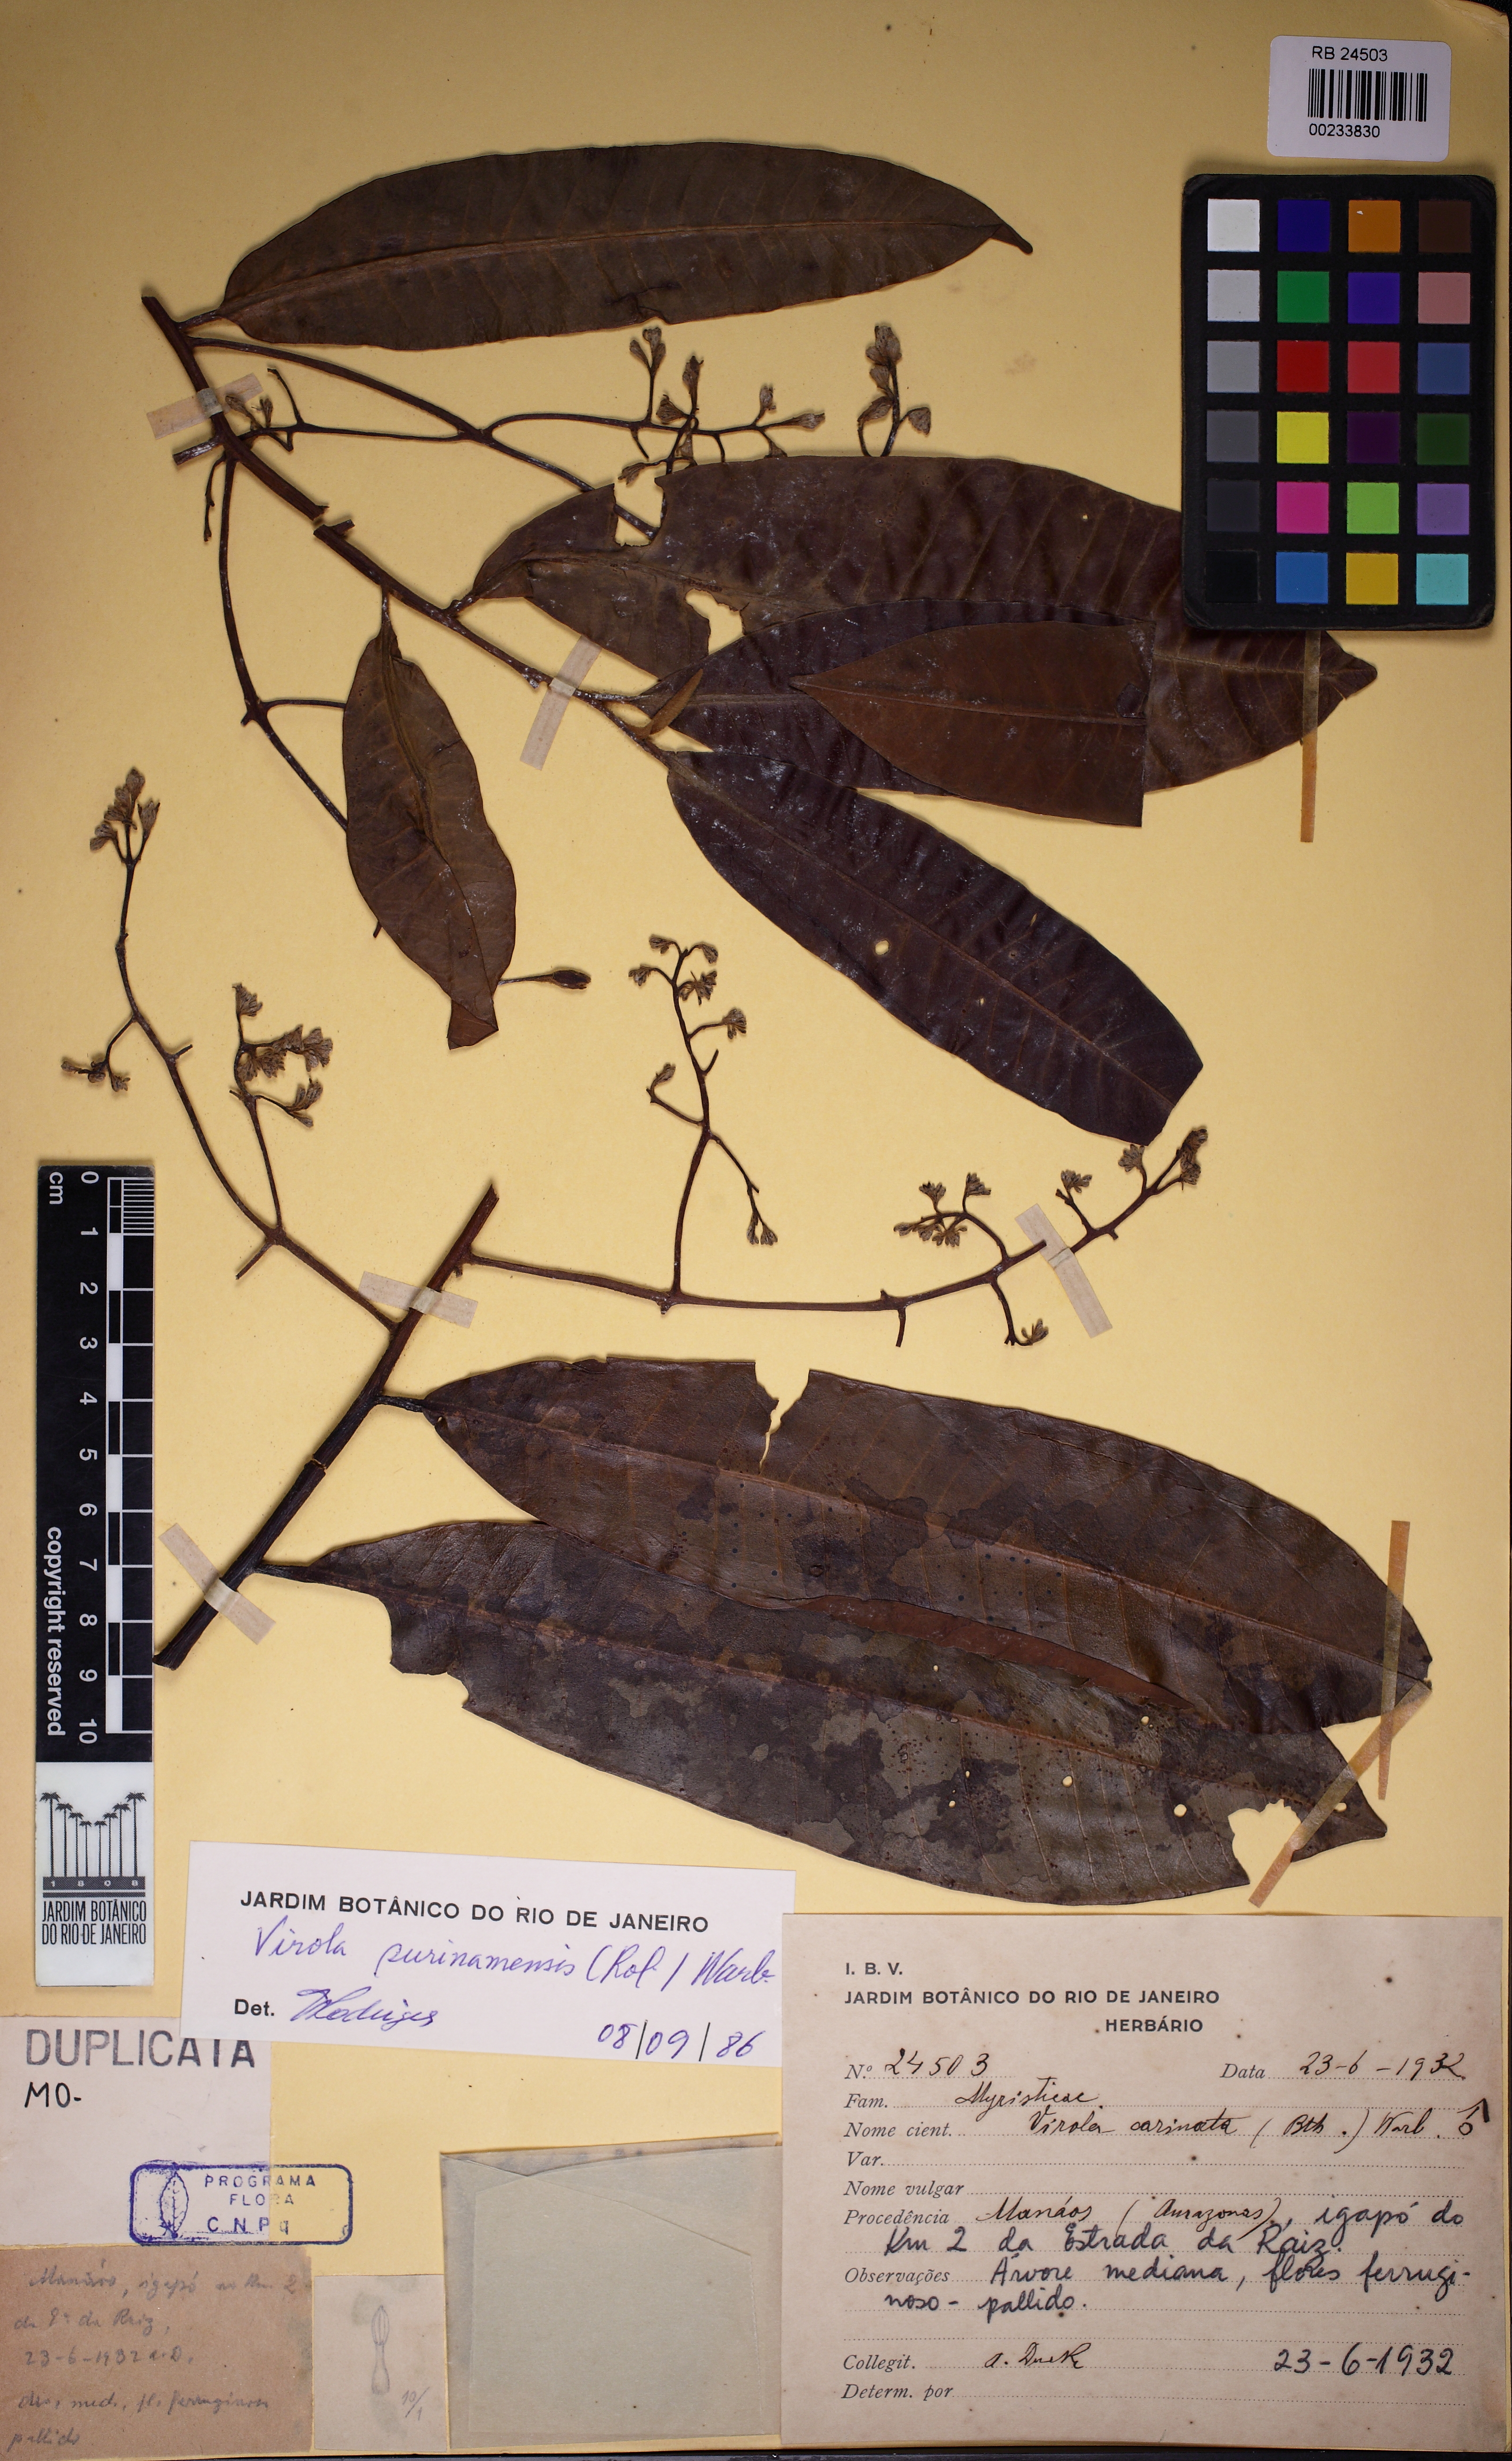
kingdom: Plantae
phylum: Tracheophyta
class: Magnoliopsida
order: Magnoliales
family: Myristicaceae
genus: Virola
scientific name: Virola surinamensis
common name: Baboonwood
